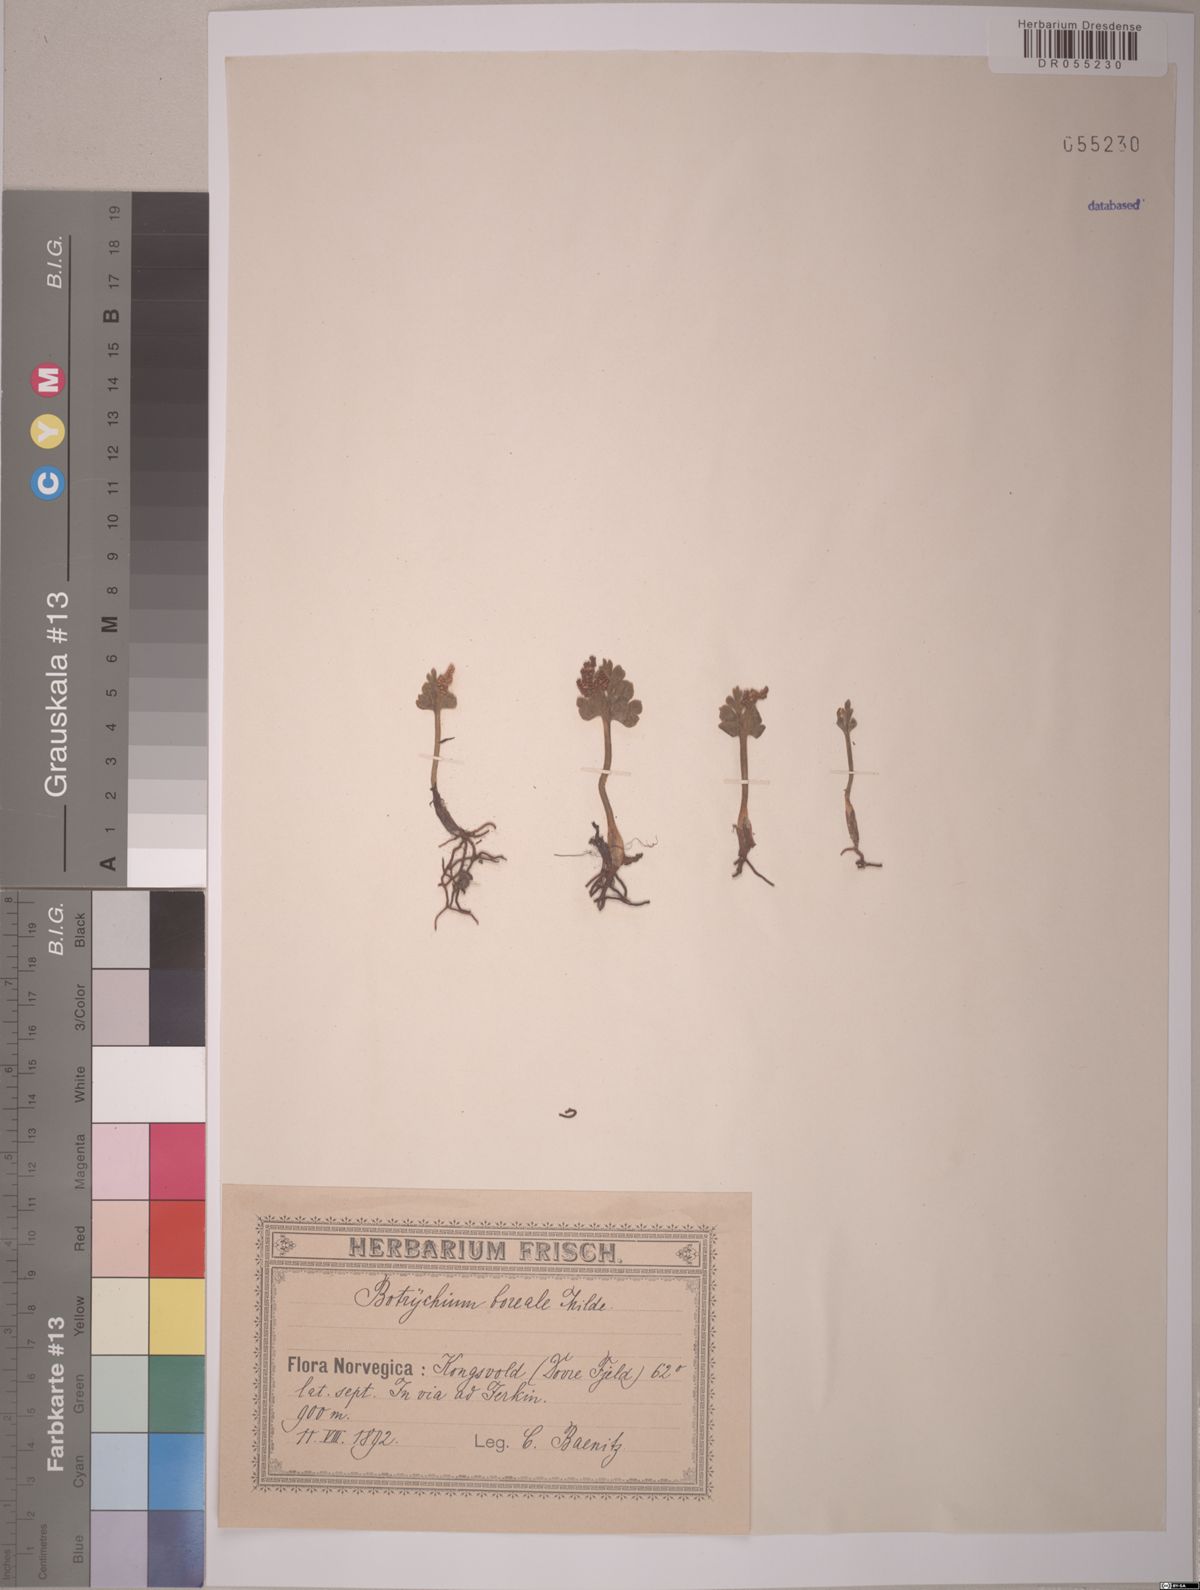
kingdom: Plantae
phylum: Tracheophyta
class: Polypodiopsida
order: Ophioglossales
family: Ophioglossaceae
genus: Botrychium
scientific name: Botrychium boreale
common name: Boreal moonwort
